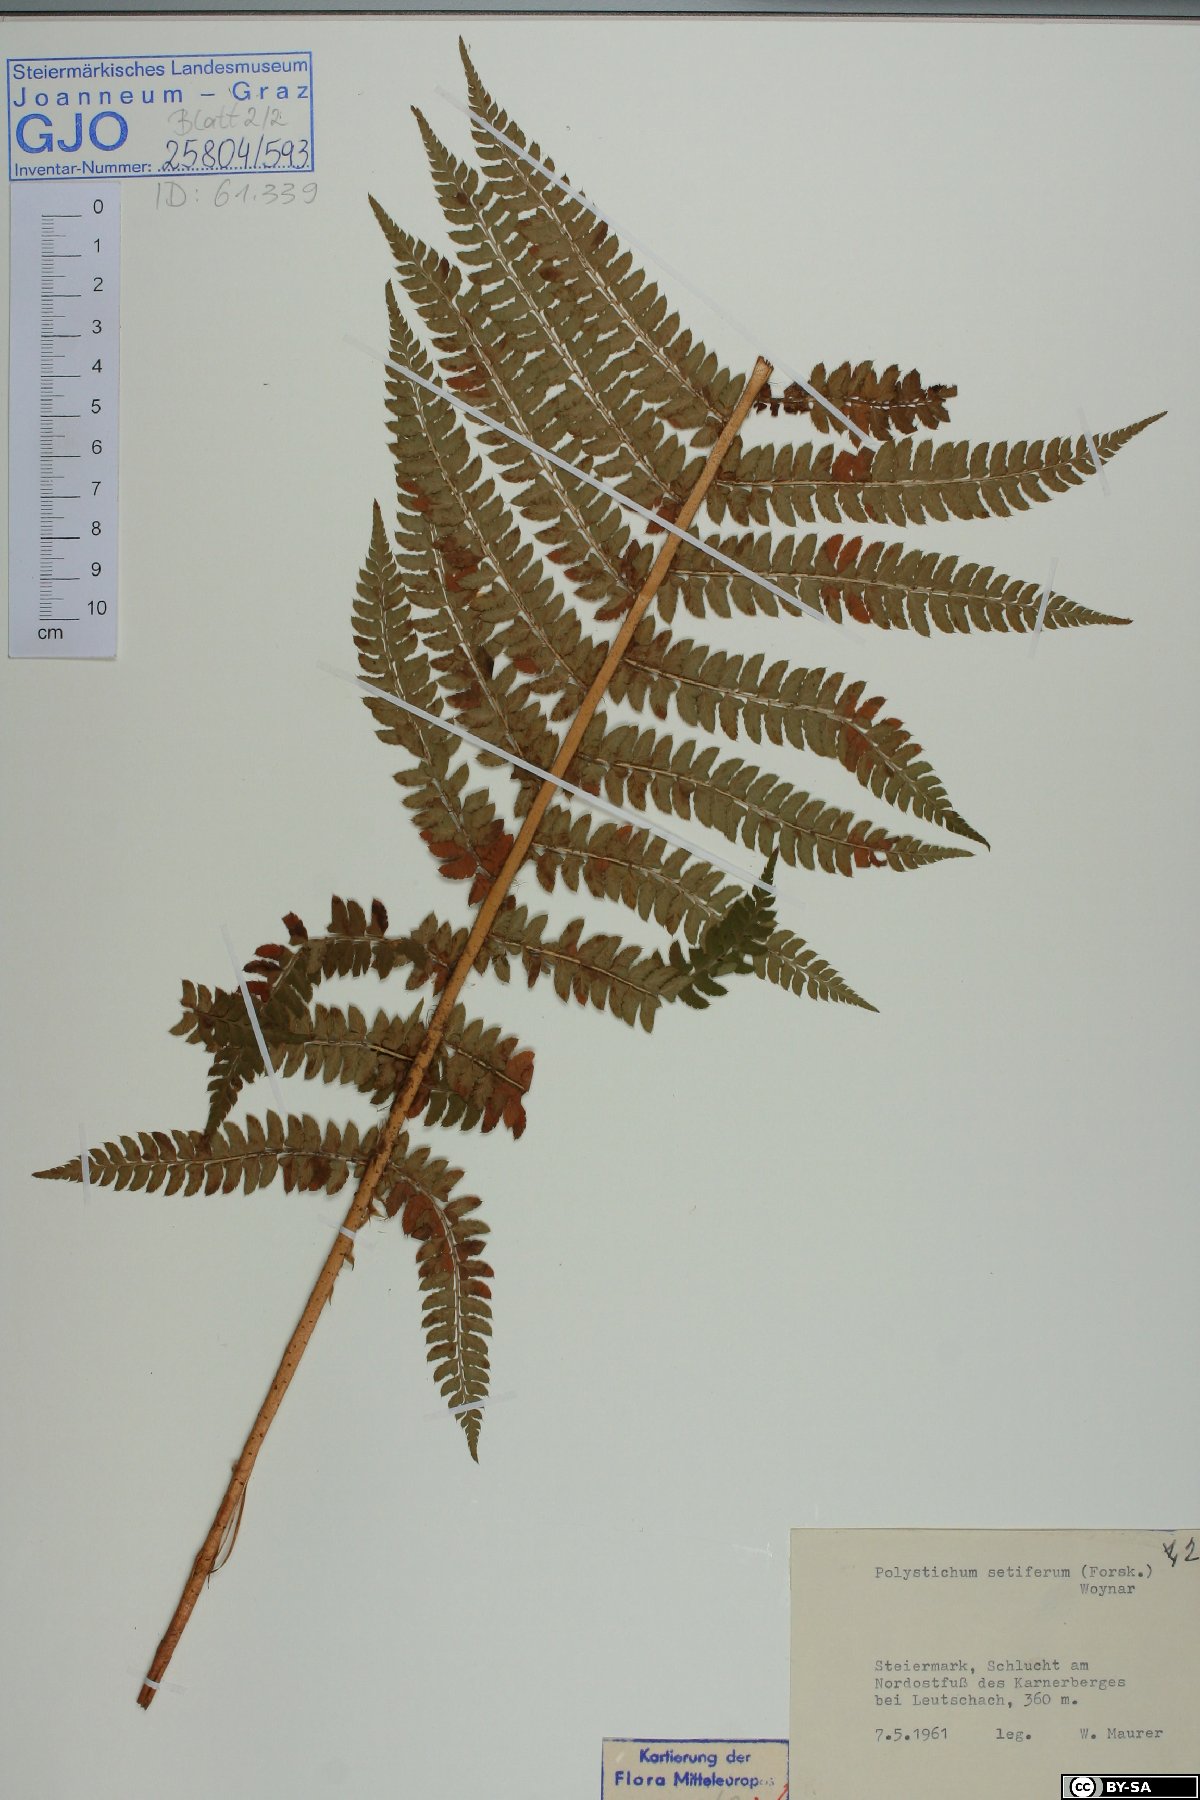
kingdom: Plantae
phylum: Tracheophyta
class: Polypodiopsida
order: Polypodiales
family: Dryopteridaceae
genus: Polystichum
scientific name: Polystichum setiferum
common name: Soft shield-fern
